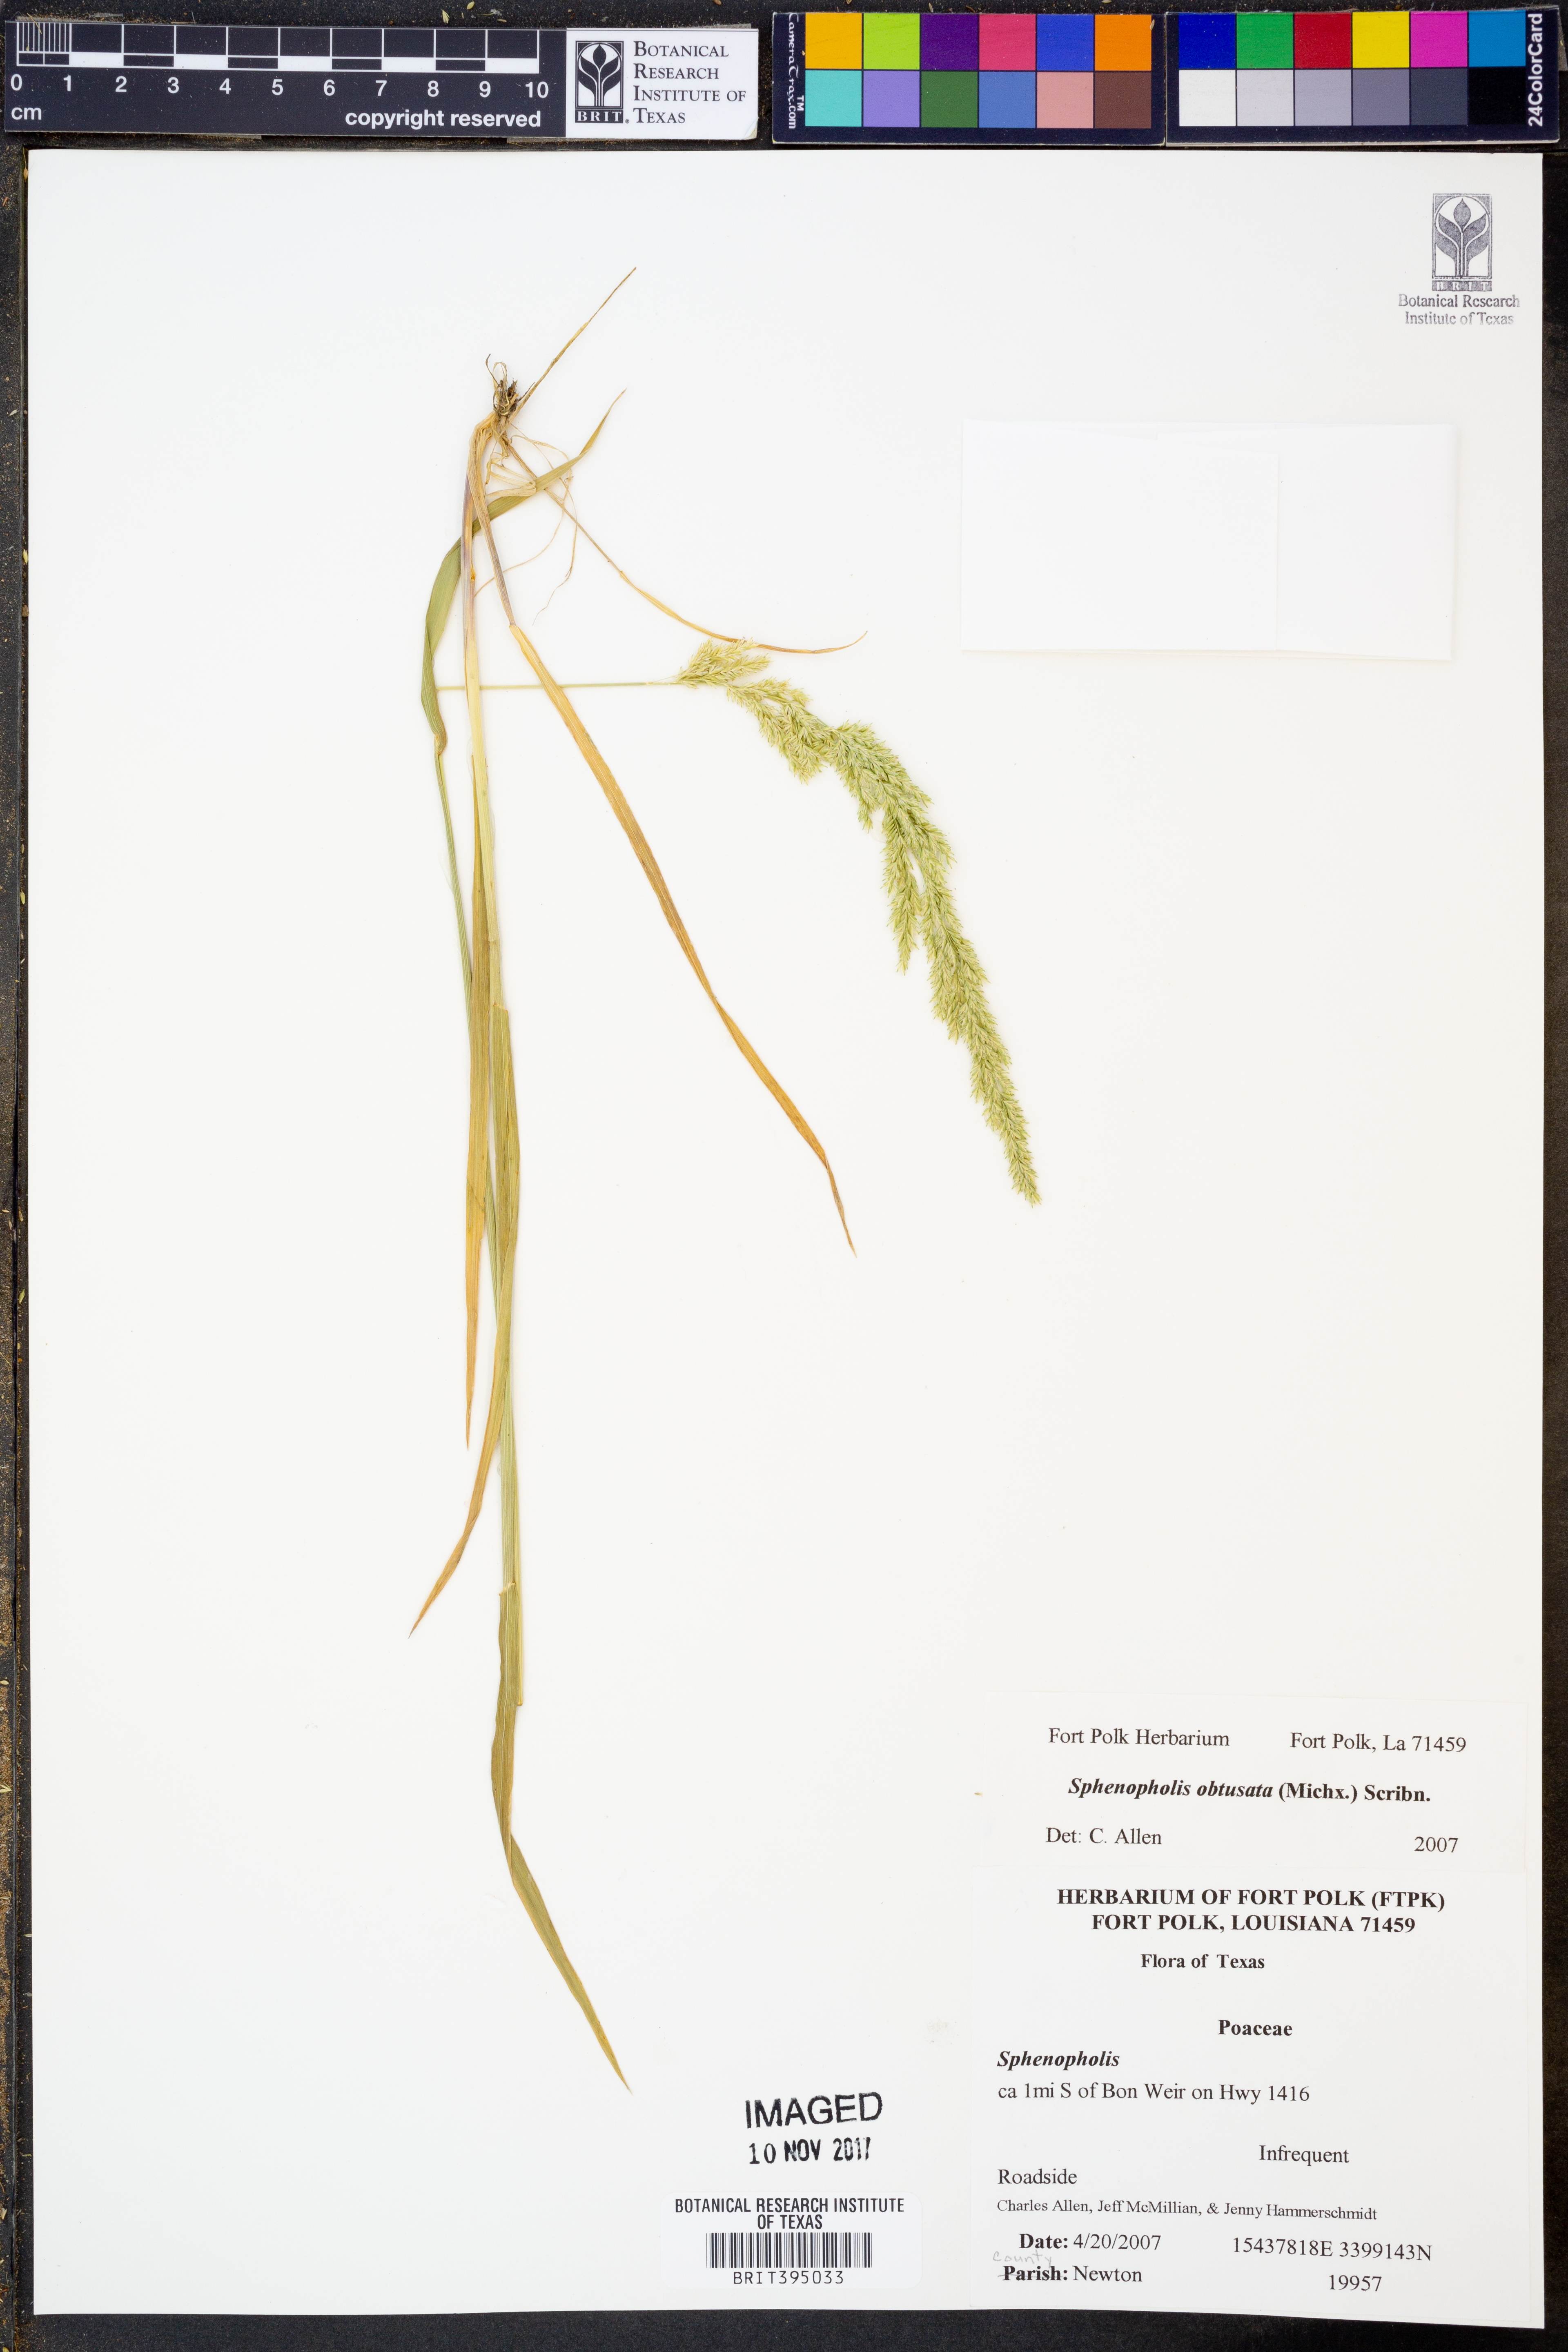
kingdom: Plantae
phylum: Tracheophyta
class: Liliopsida
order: Poales
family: Poaceae
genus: Sphenopholis
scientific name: Sphenopholis obtusata
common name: Prairie grass
